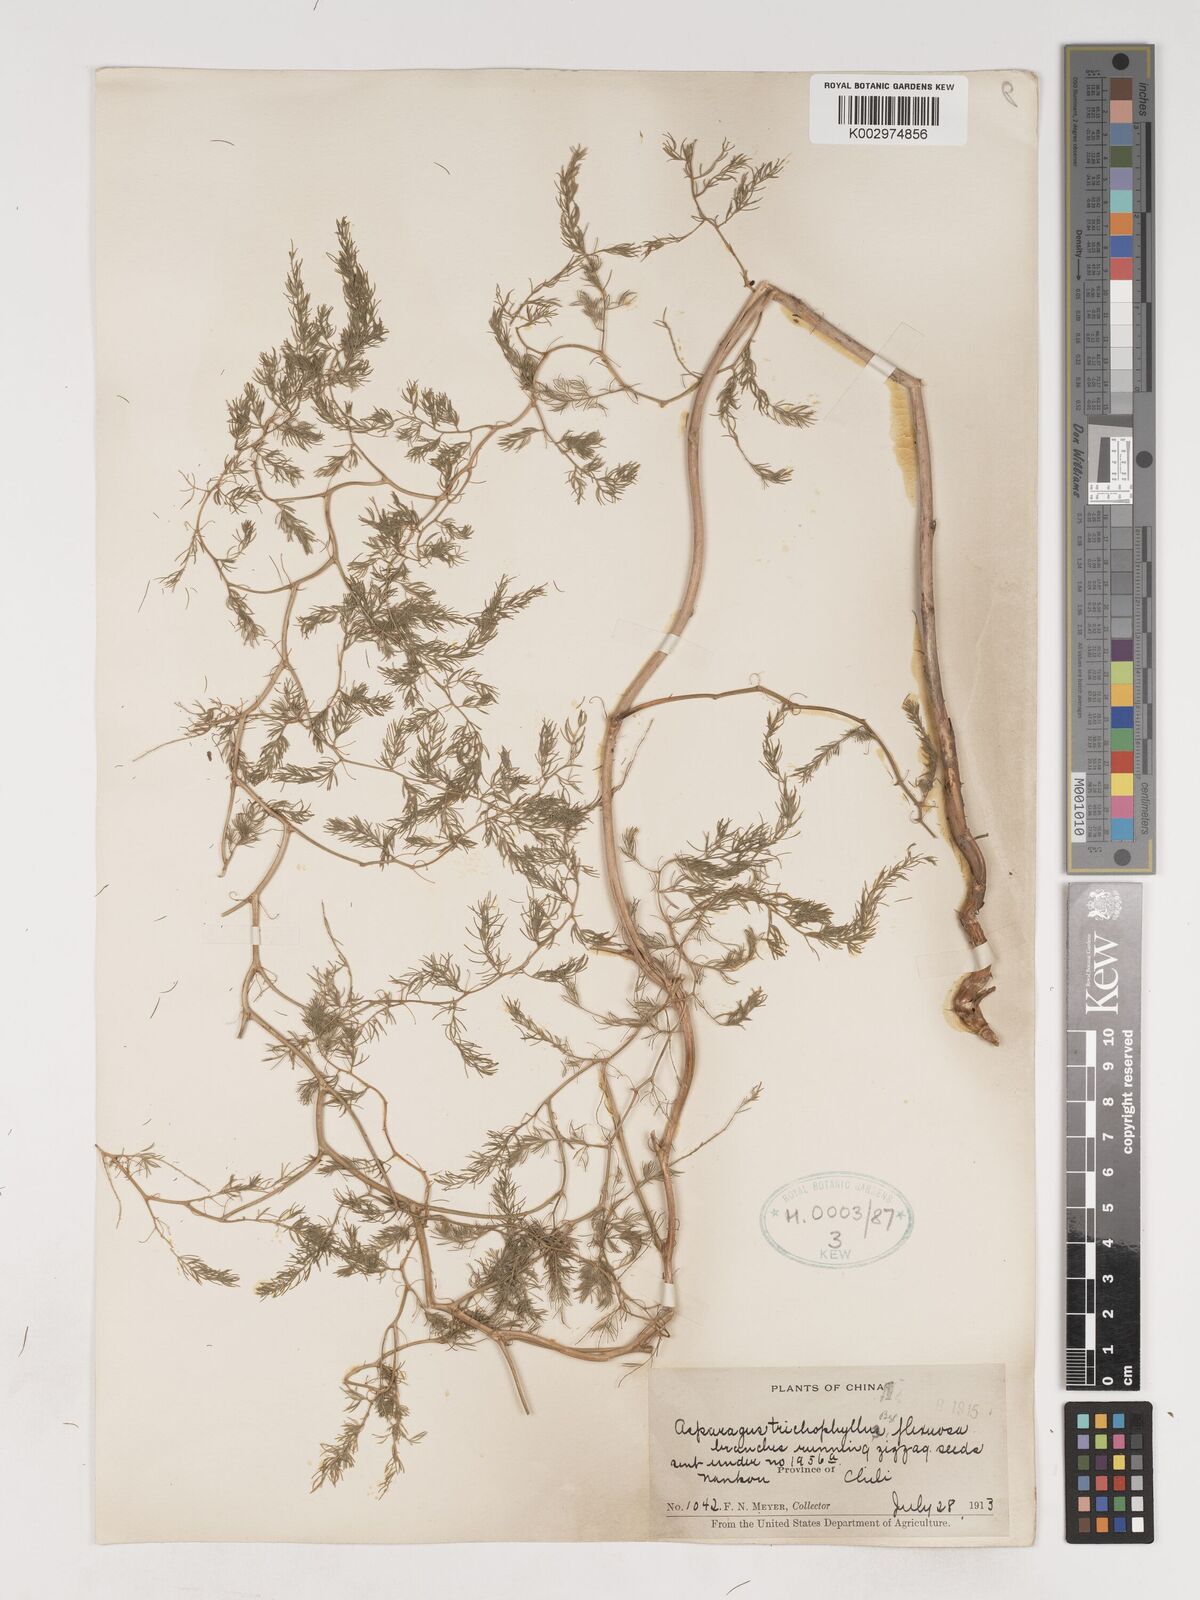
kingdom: Plantae
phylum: Tracheophyta
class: Liliopsida
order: Asparagales
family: Asparagaceae
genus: Asparagus
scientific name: Asparagus trichophyllus
